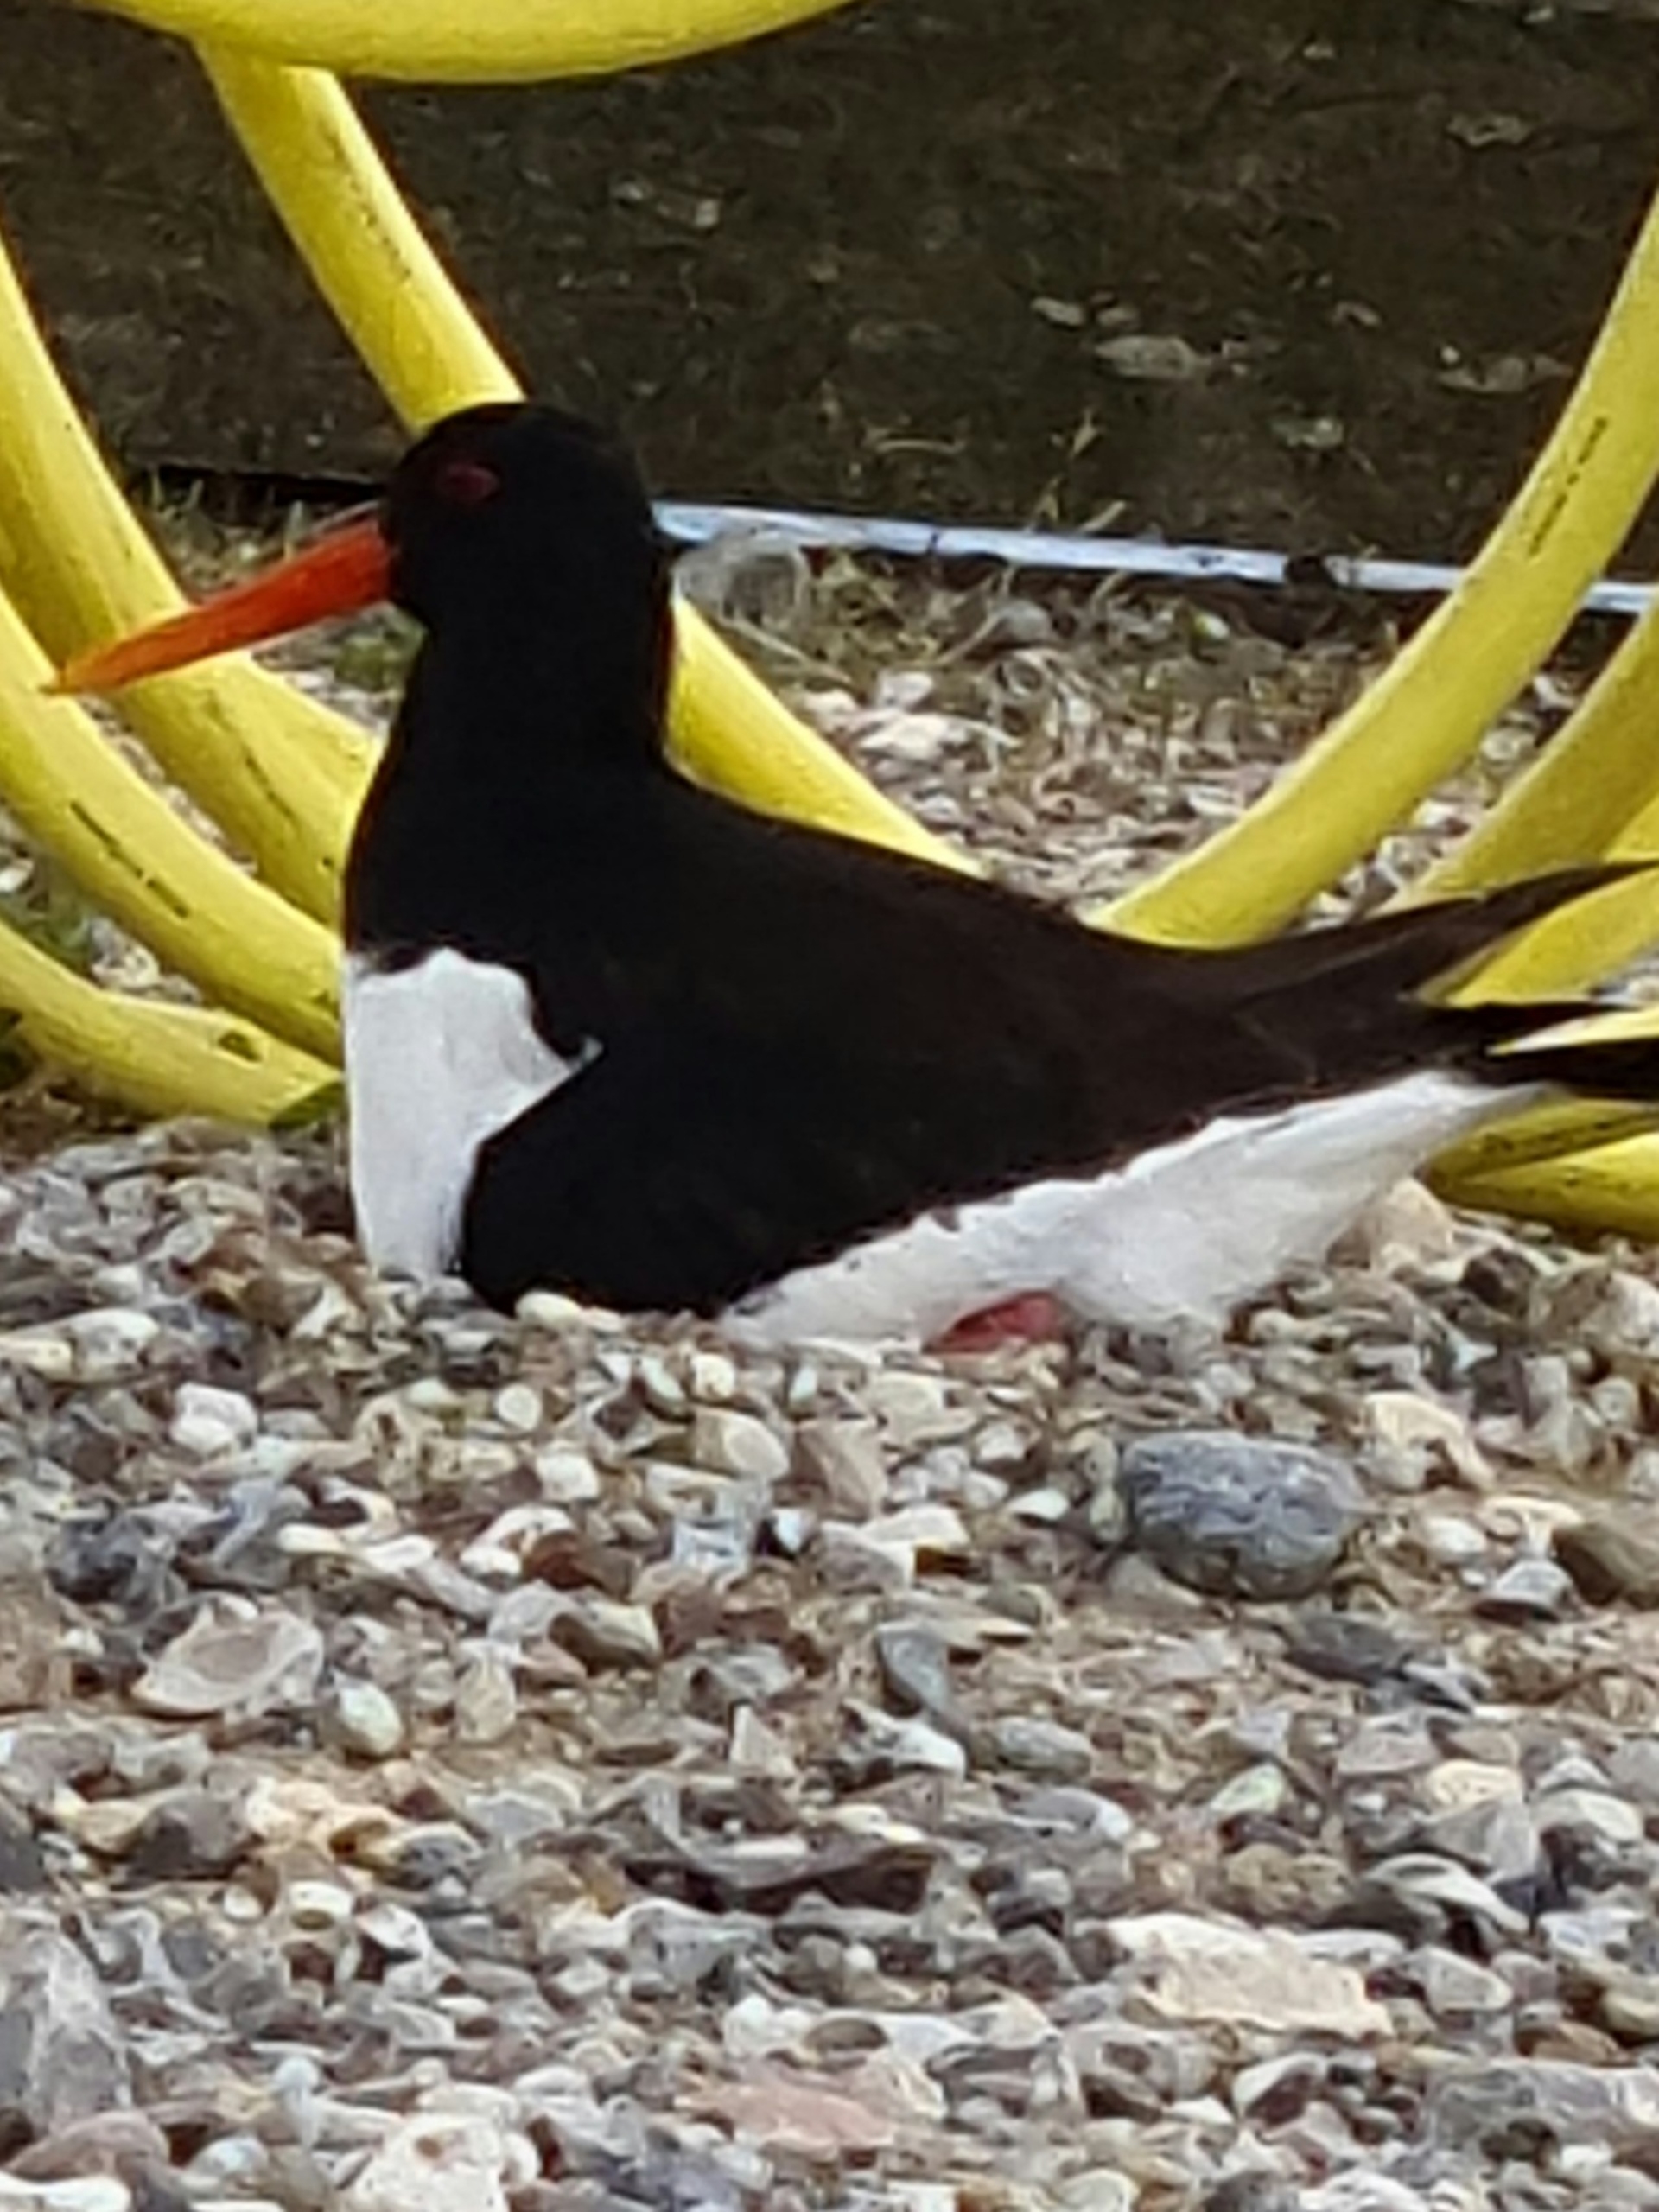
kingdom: Animalia
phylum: Chordata
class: Aves
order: Charadriiformes
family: Haematopodidae
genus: Haematopus
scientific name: Haematopus ostralegus
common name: Strandskade
